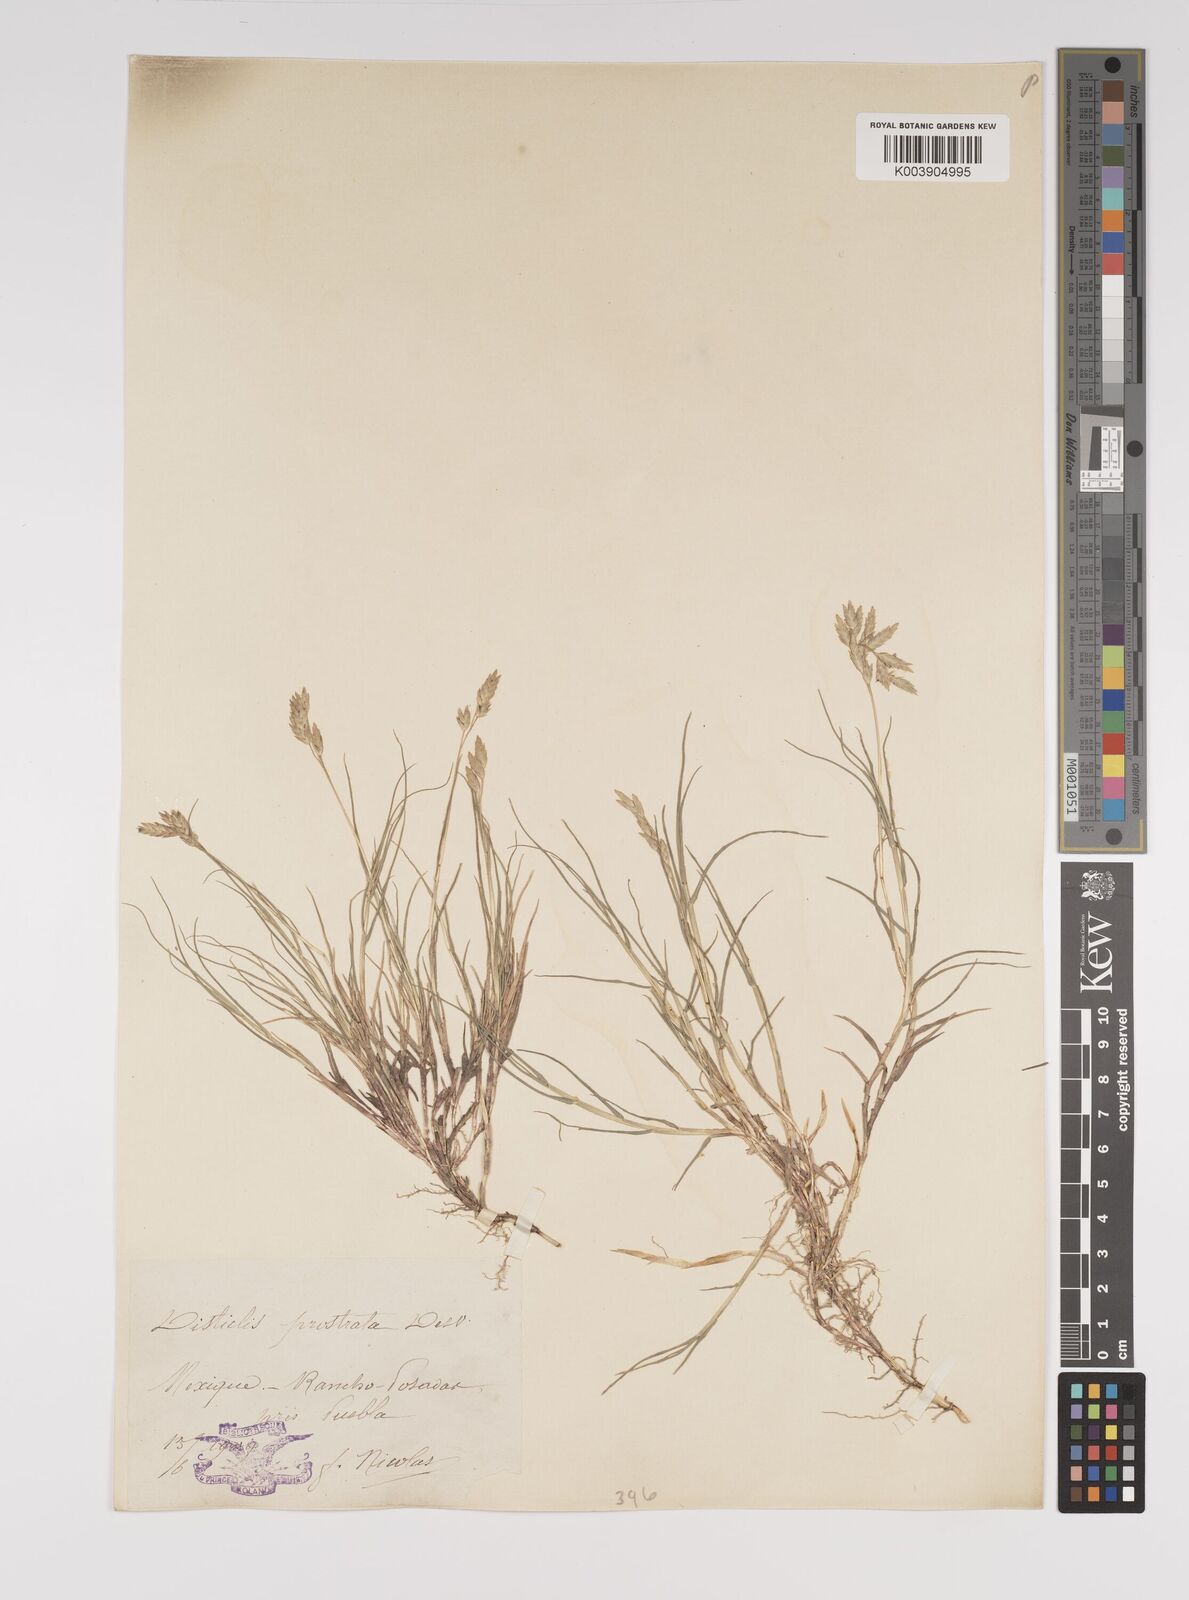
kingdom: Plantae
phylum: Tracheophyta
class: Liliopsida
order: Poales
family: Poaceae
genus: Distichlis
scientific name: Distichlis spicata
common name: Saltgrass
